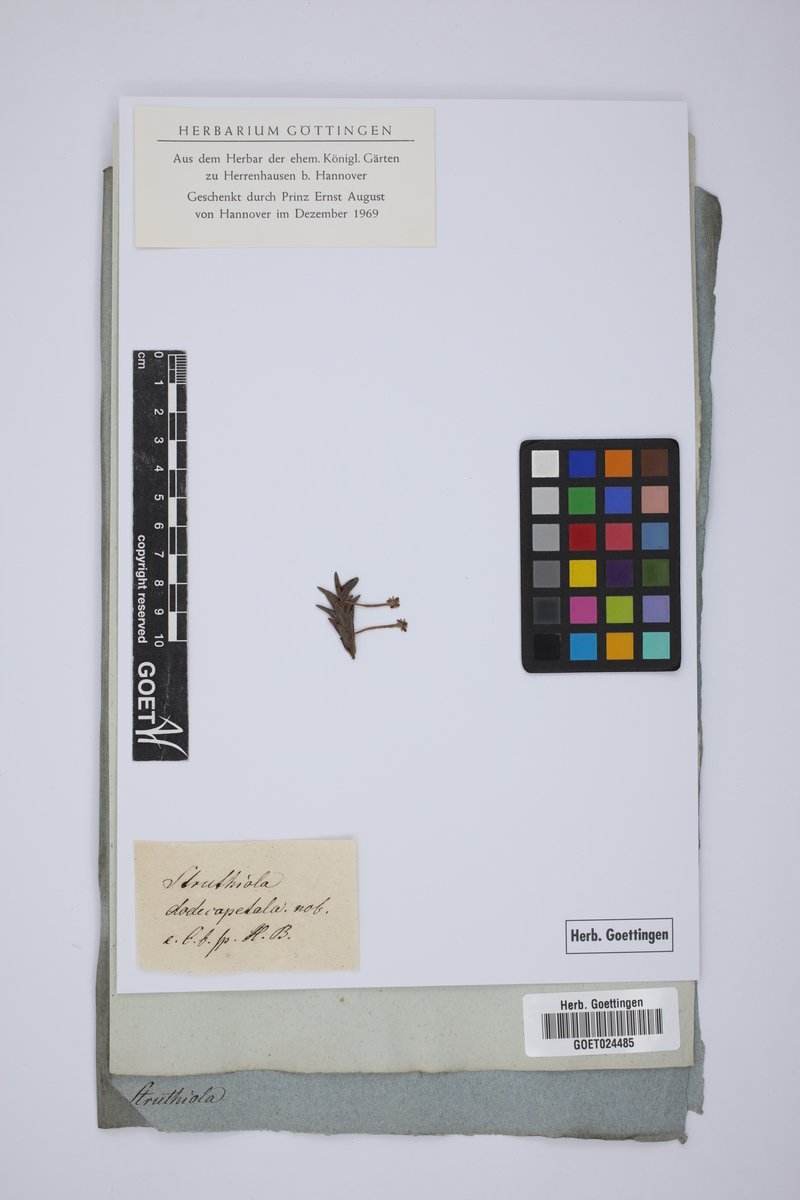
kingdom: Plantae
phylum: Tracheophyta
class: Magnoliopsida
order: Malvales
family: Thymelaeaceae
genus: Struthiola
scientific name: Struthiola dodecandra
